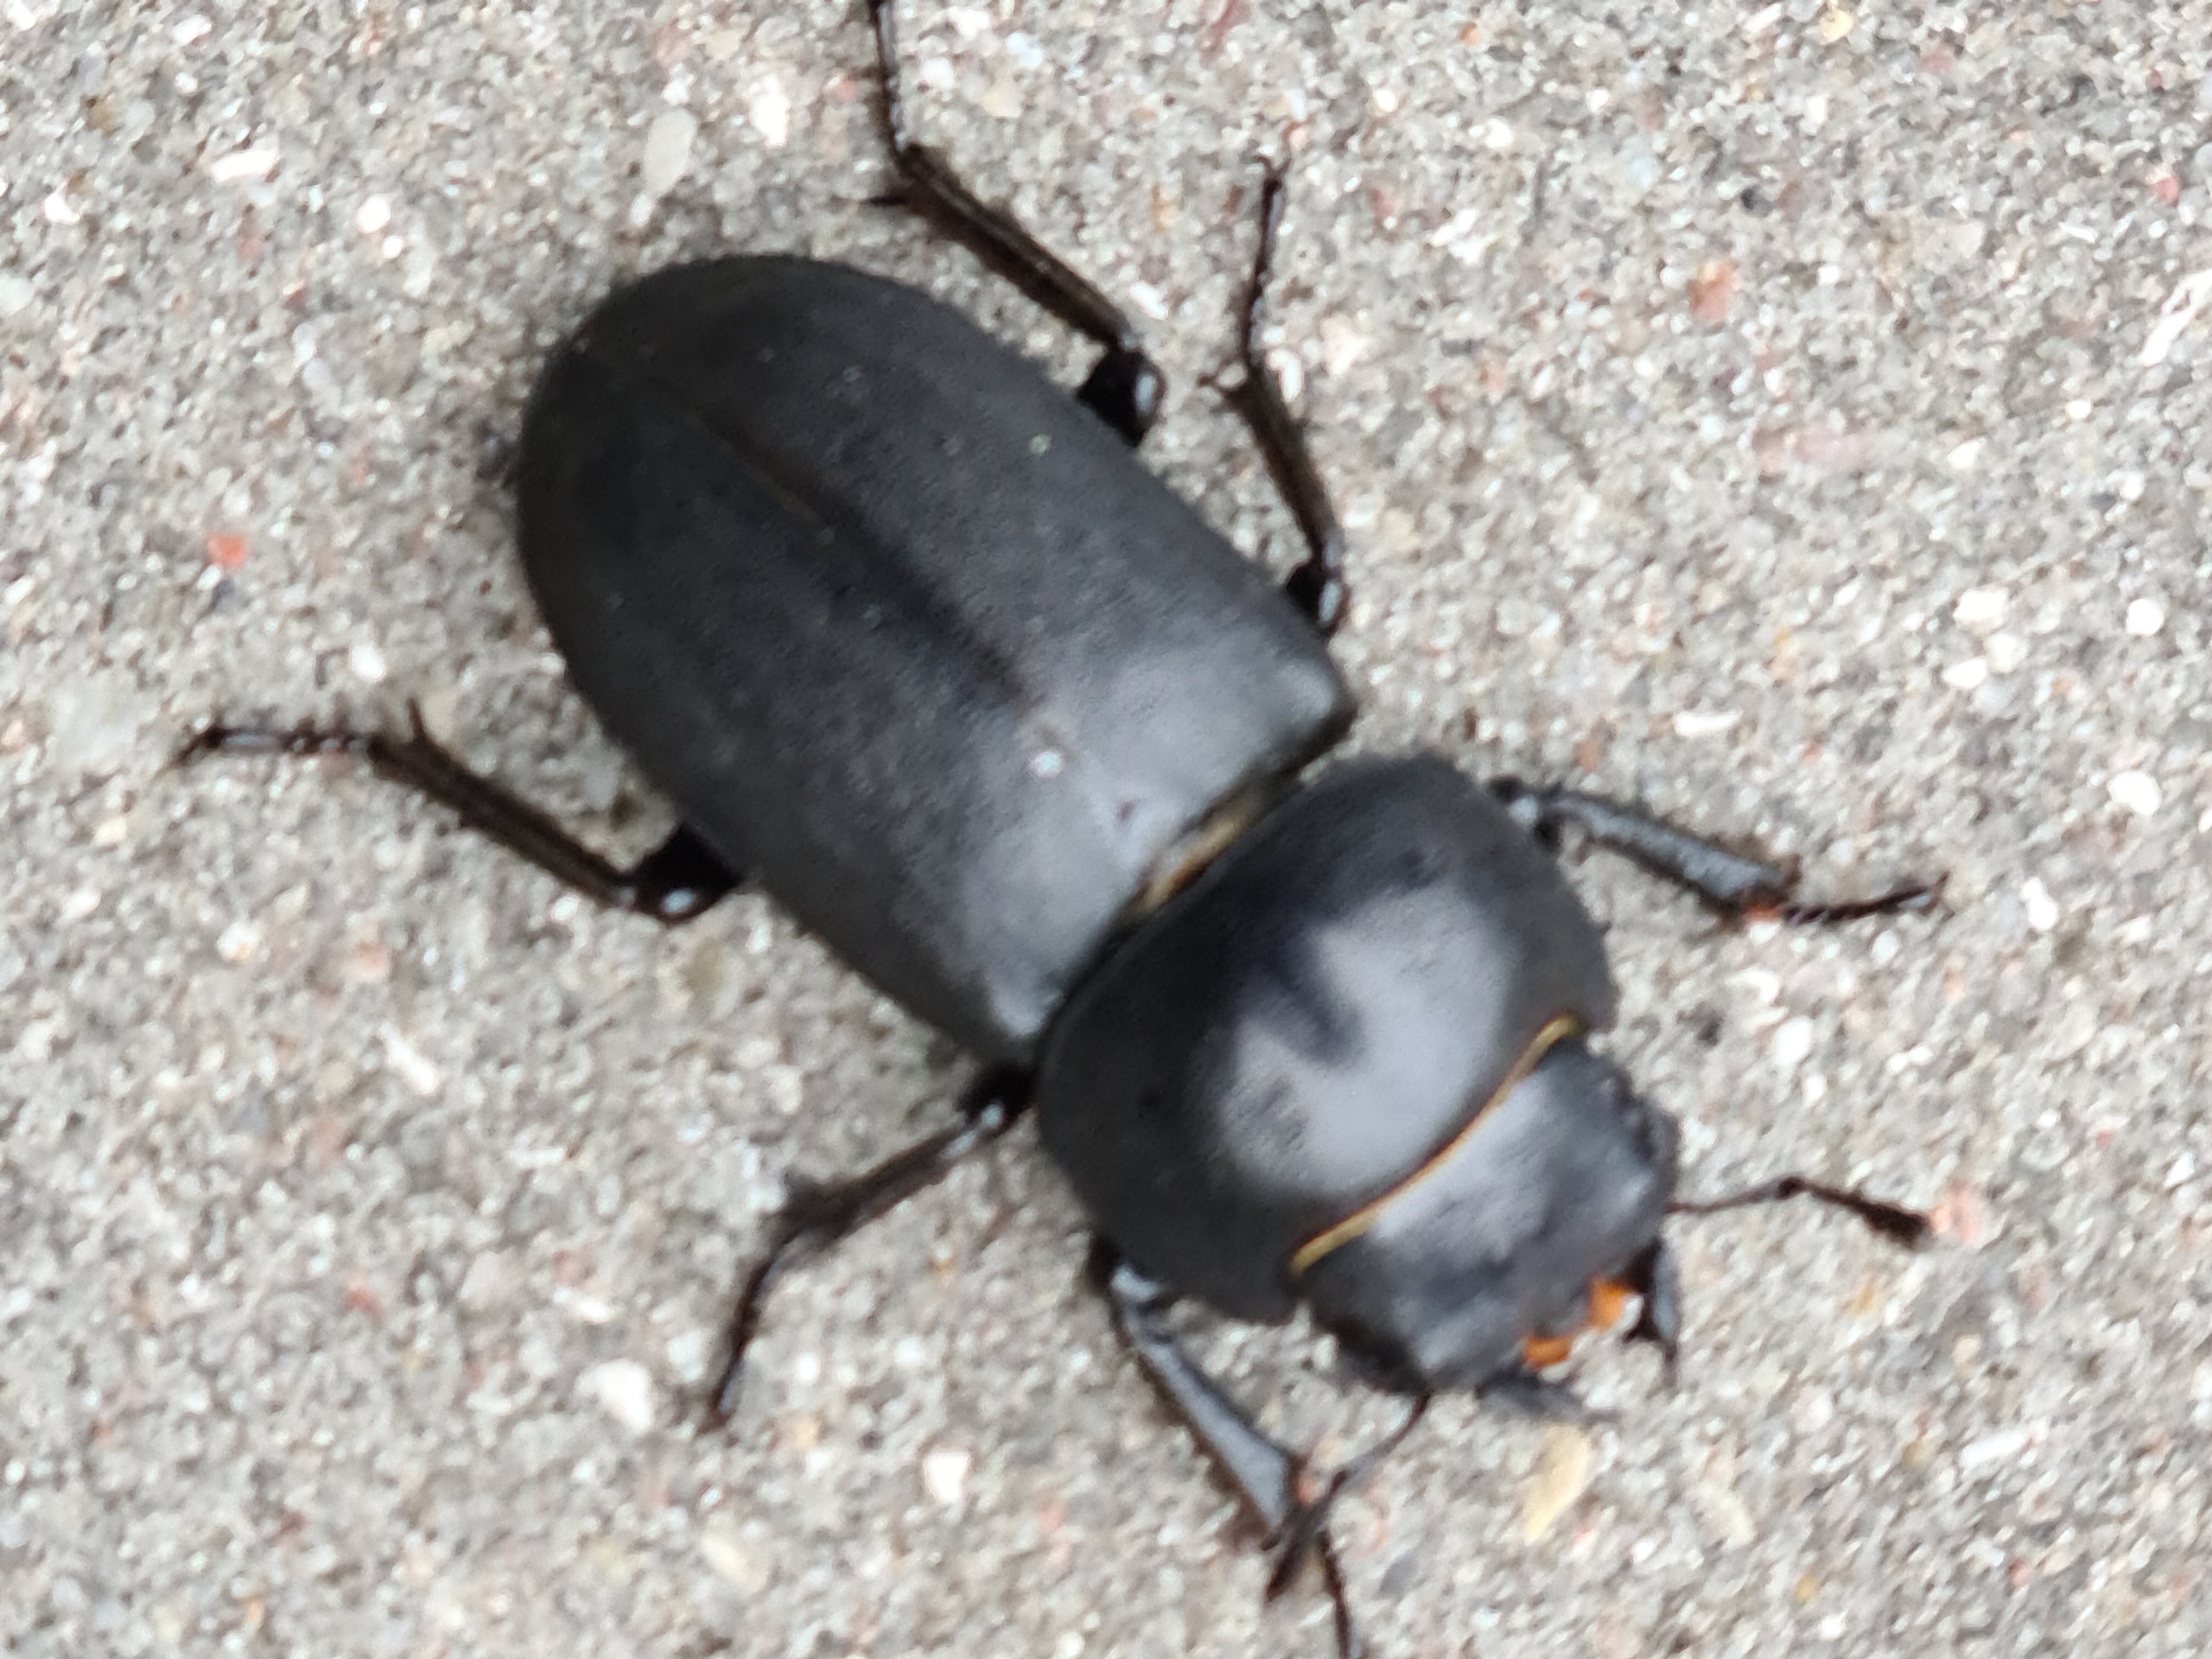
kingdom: Animalia
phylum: Arthropoda
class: Insecta
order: Coleoptera
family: Lucanidae
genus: Dorcus
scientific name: Dorcus parallelipipedus
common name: Bøghjort
